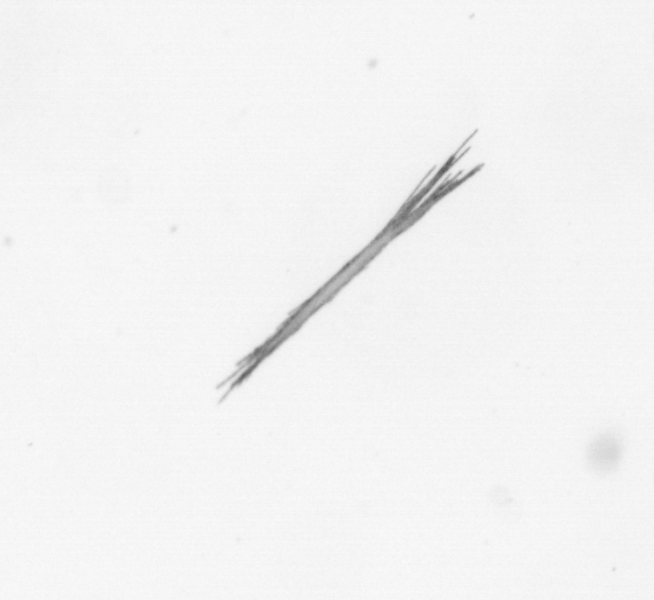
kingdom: Bacteria
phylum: Cyanobacteria
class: Cyanobacteriia
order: Cyanobacteriales
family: Microcoleaceae
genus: Trichodesmium
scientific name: Trichodesmium
